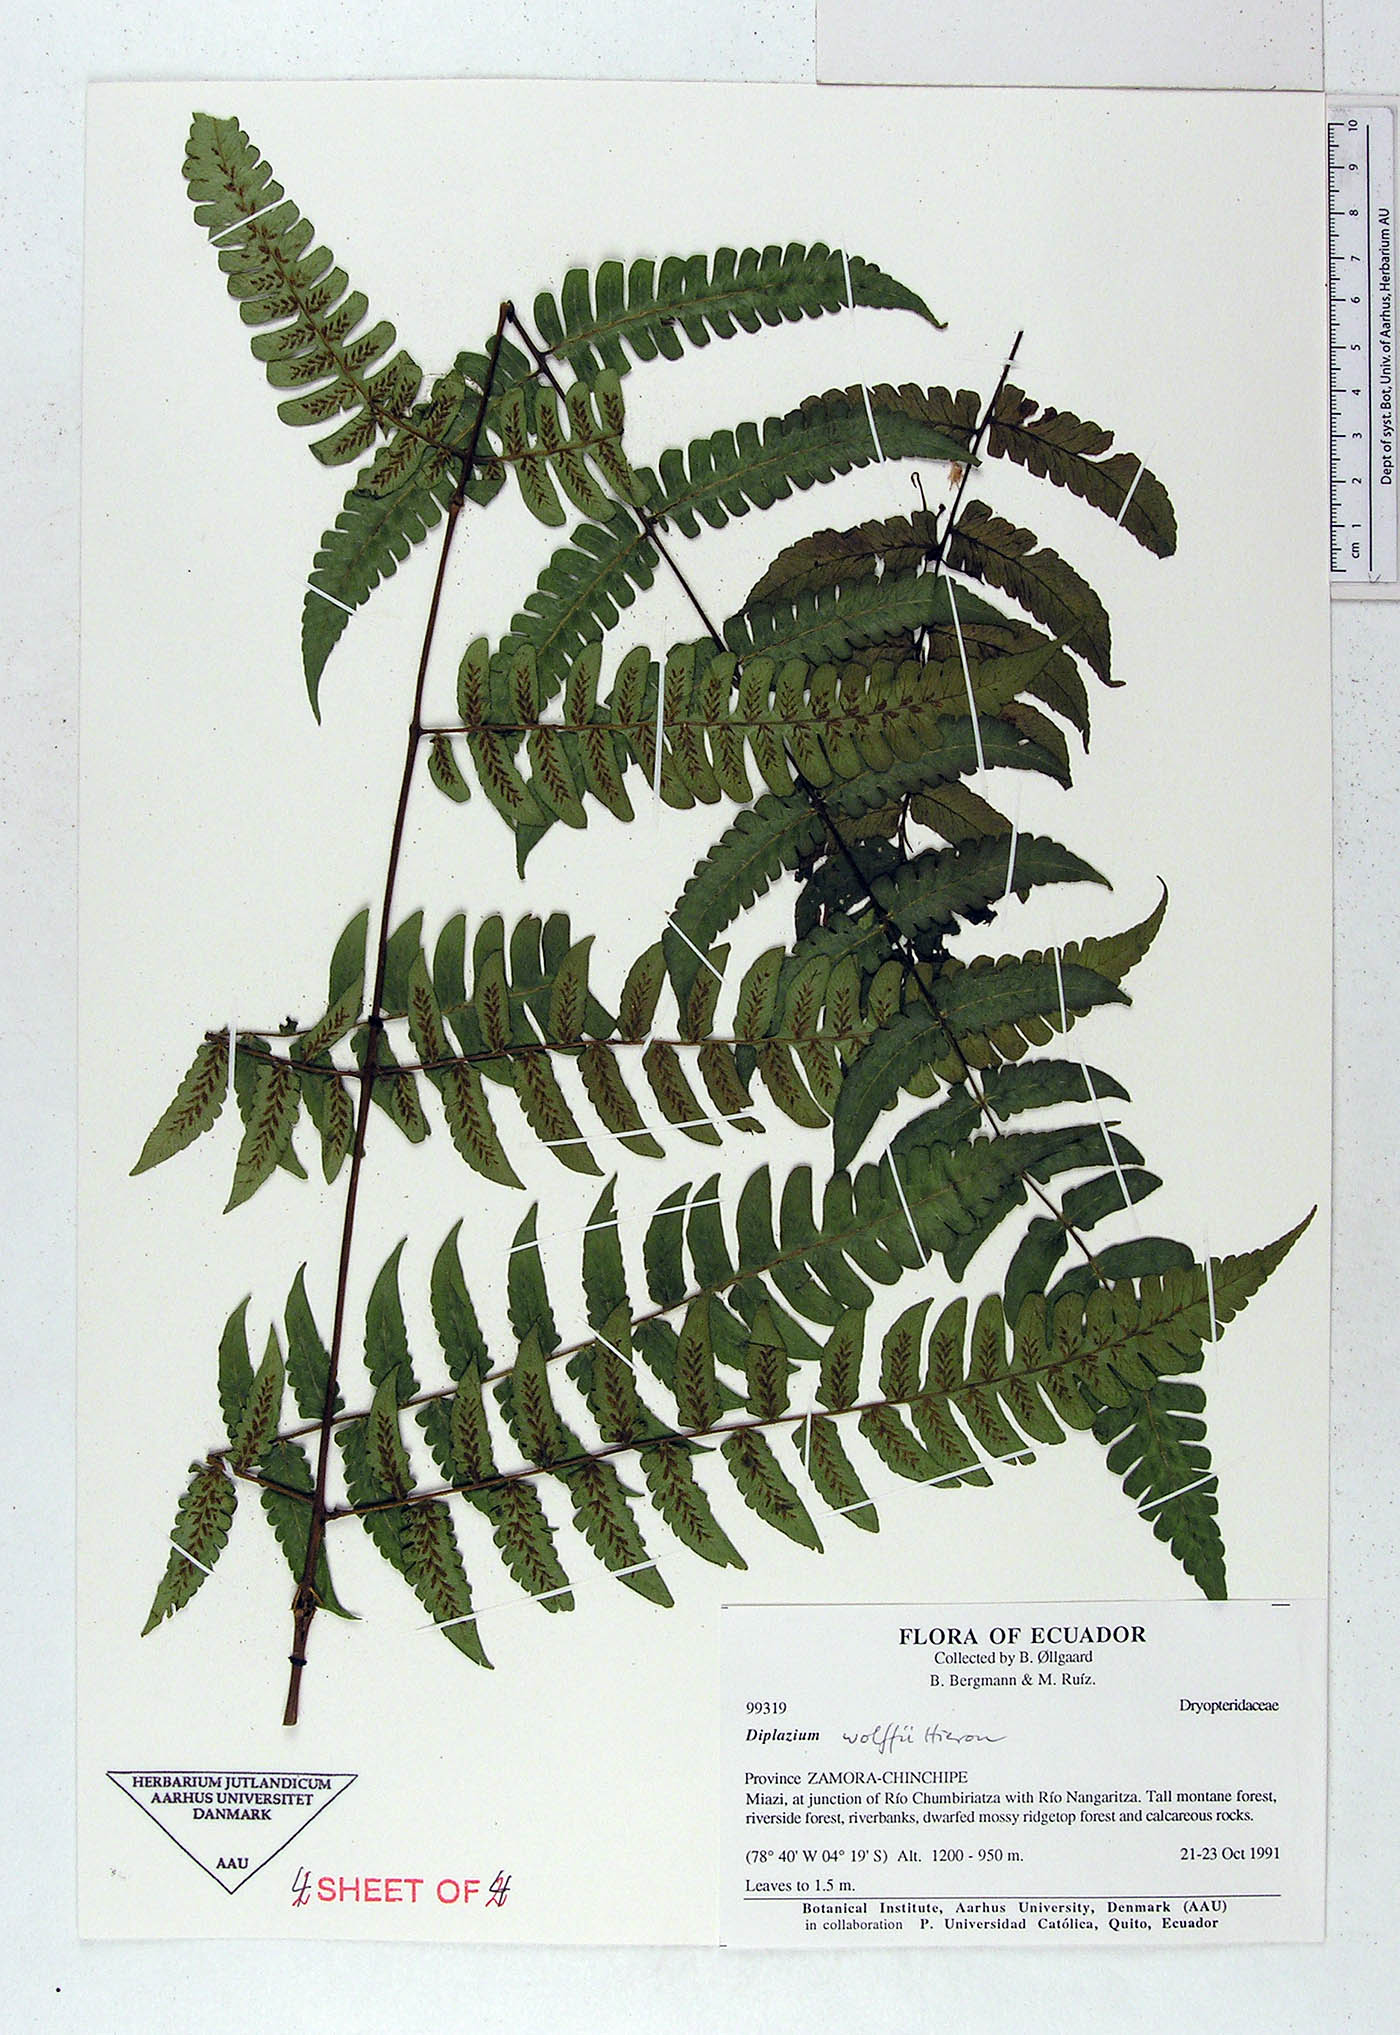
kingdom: Plantae
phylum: Tracheophyta
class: Polypodiopsida
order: Polypodiales
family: Athyriaceae
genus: Diplazium
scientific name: Diplazium wolfii
